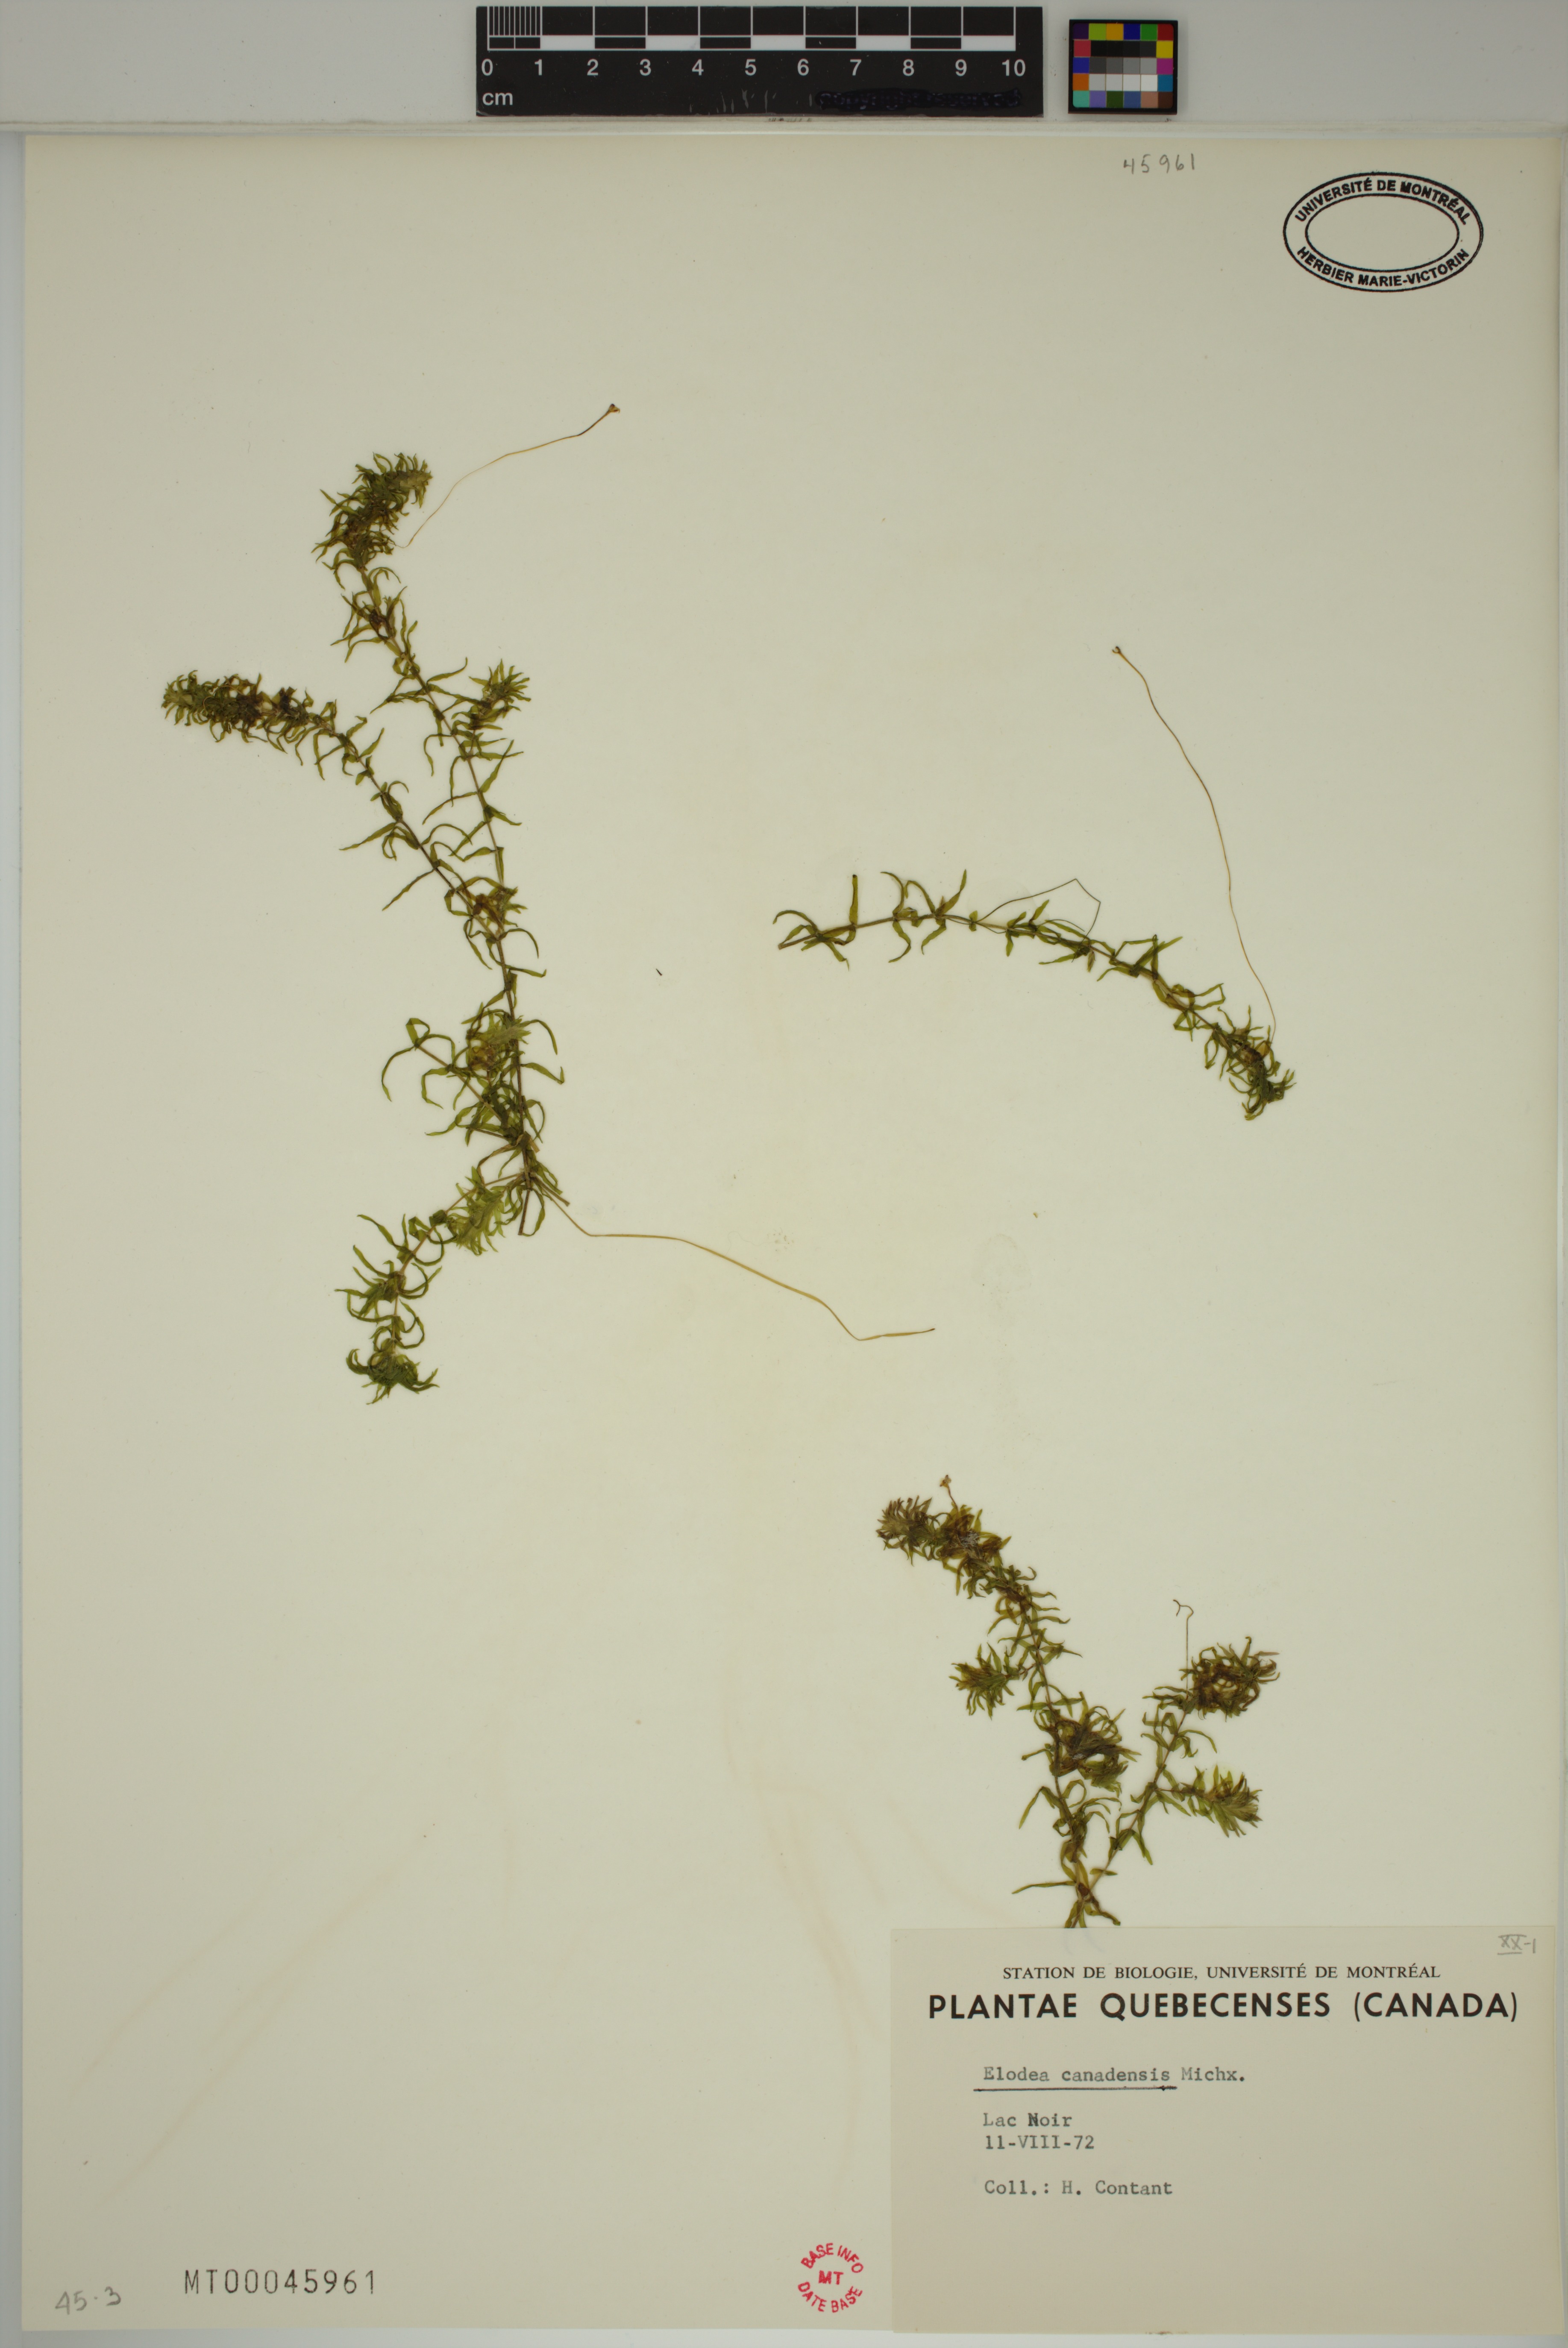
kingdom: Plantae
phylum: Tracheophyta
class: Liliopsida
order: Alismatales
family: Hydrocharitaceae
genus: Elodea
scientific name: Elodea canadensis
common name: Canadian waterweed
